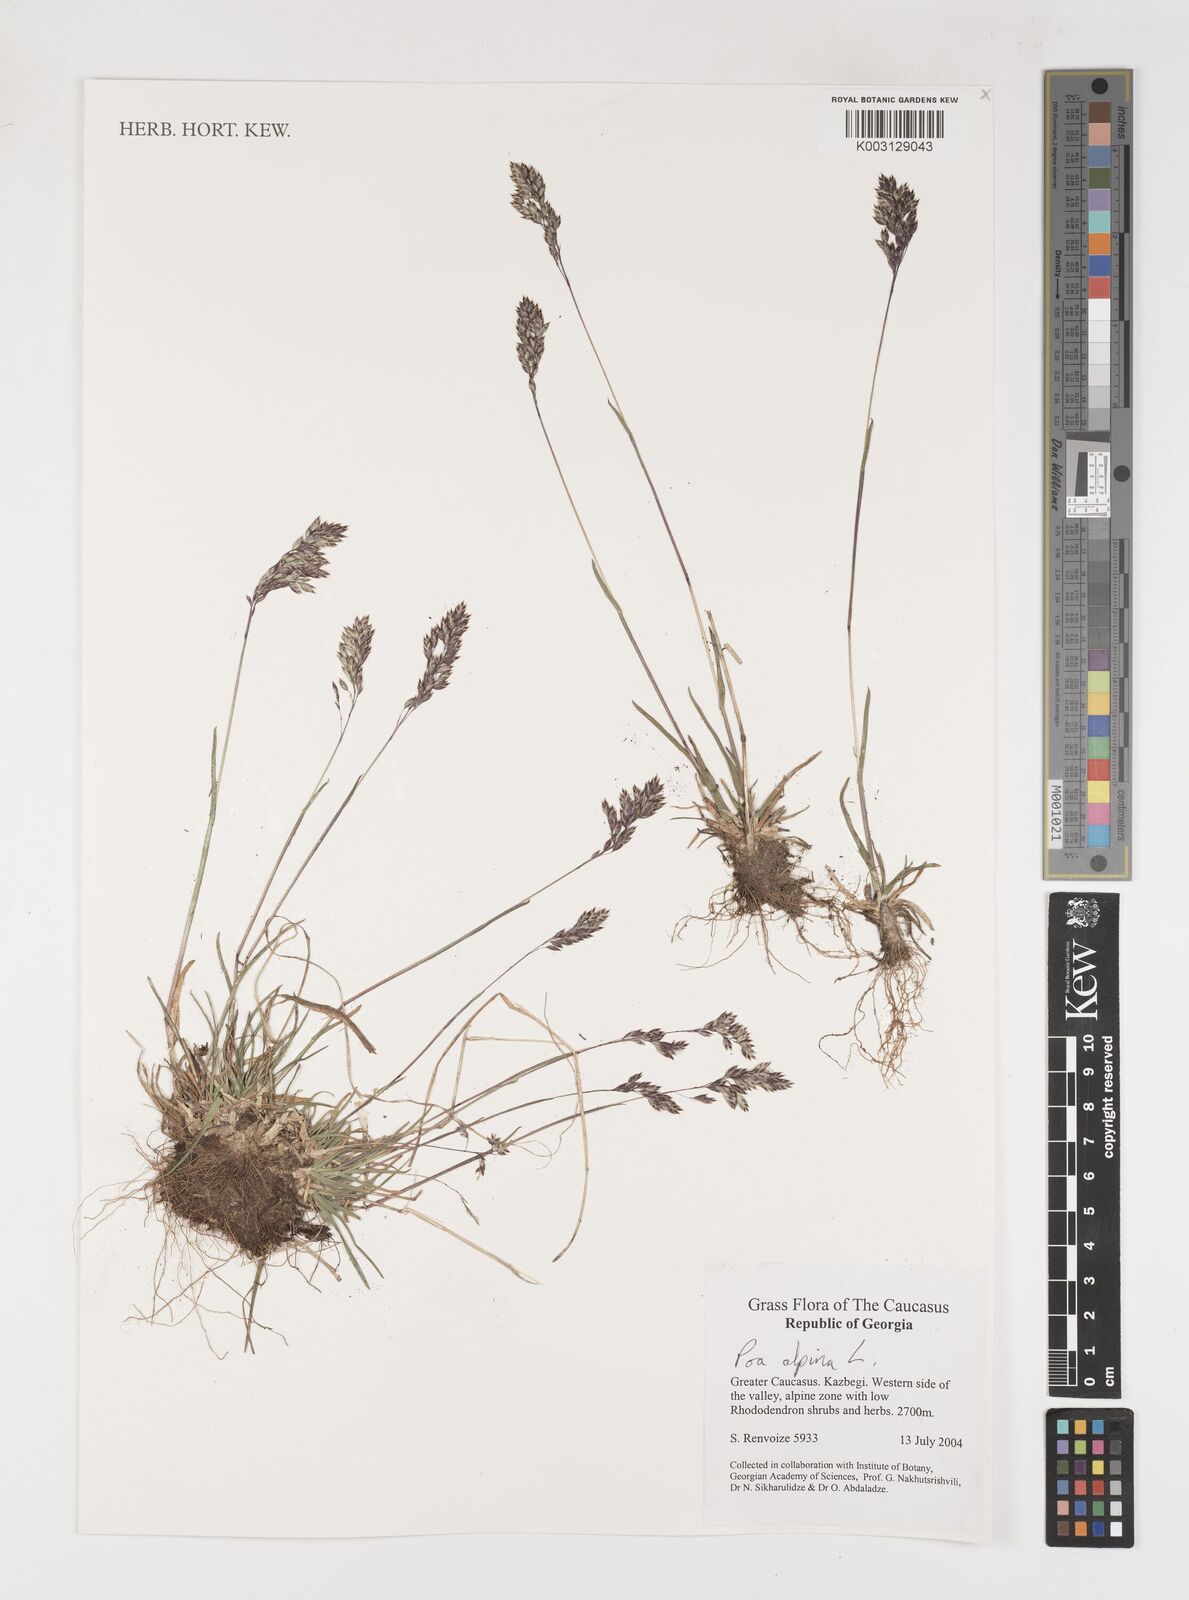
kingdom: Plantae
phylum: Tracheophyta
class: Liliopsida
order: Poales
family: Poaceae
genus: Poa
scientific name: Poa alpina
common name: Alpine bluegrass
